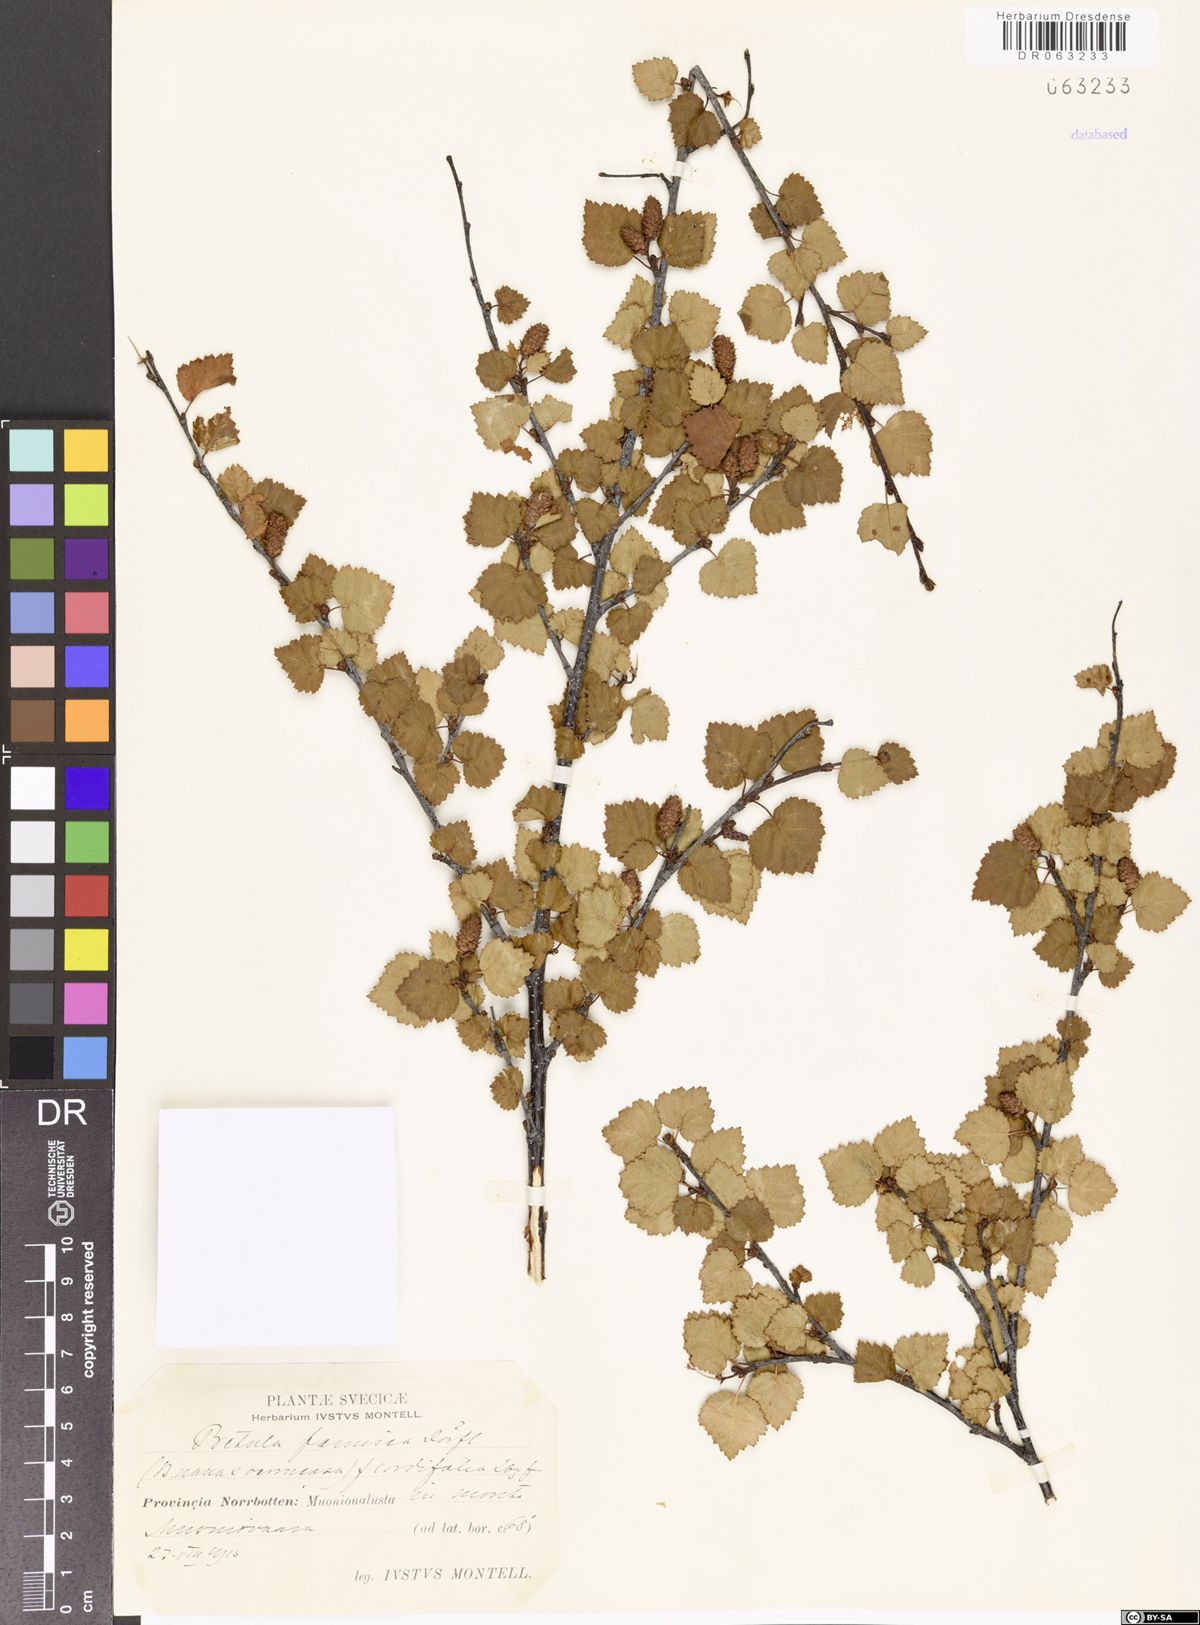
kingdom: Plantae
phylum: Tracheophyta
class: Magnoliopsida
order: Fagales
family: Betulaceae
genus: Betula
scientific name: Betula bottnica
